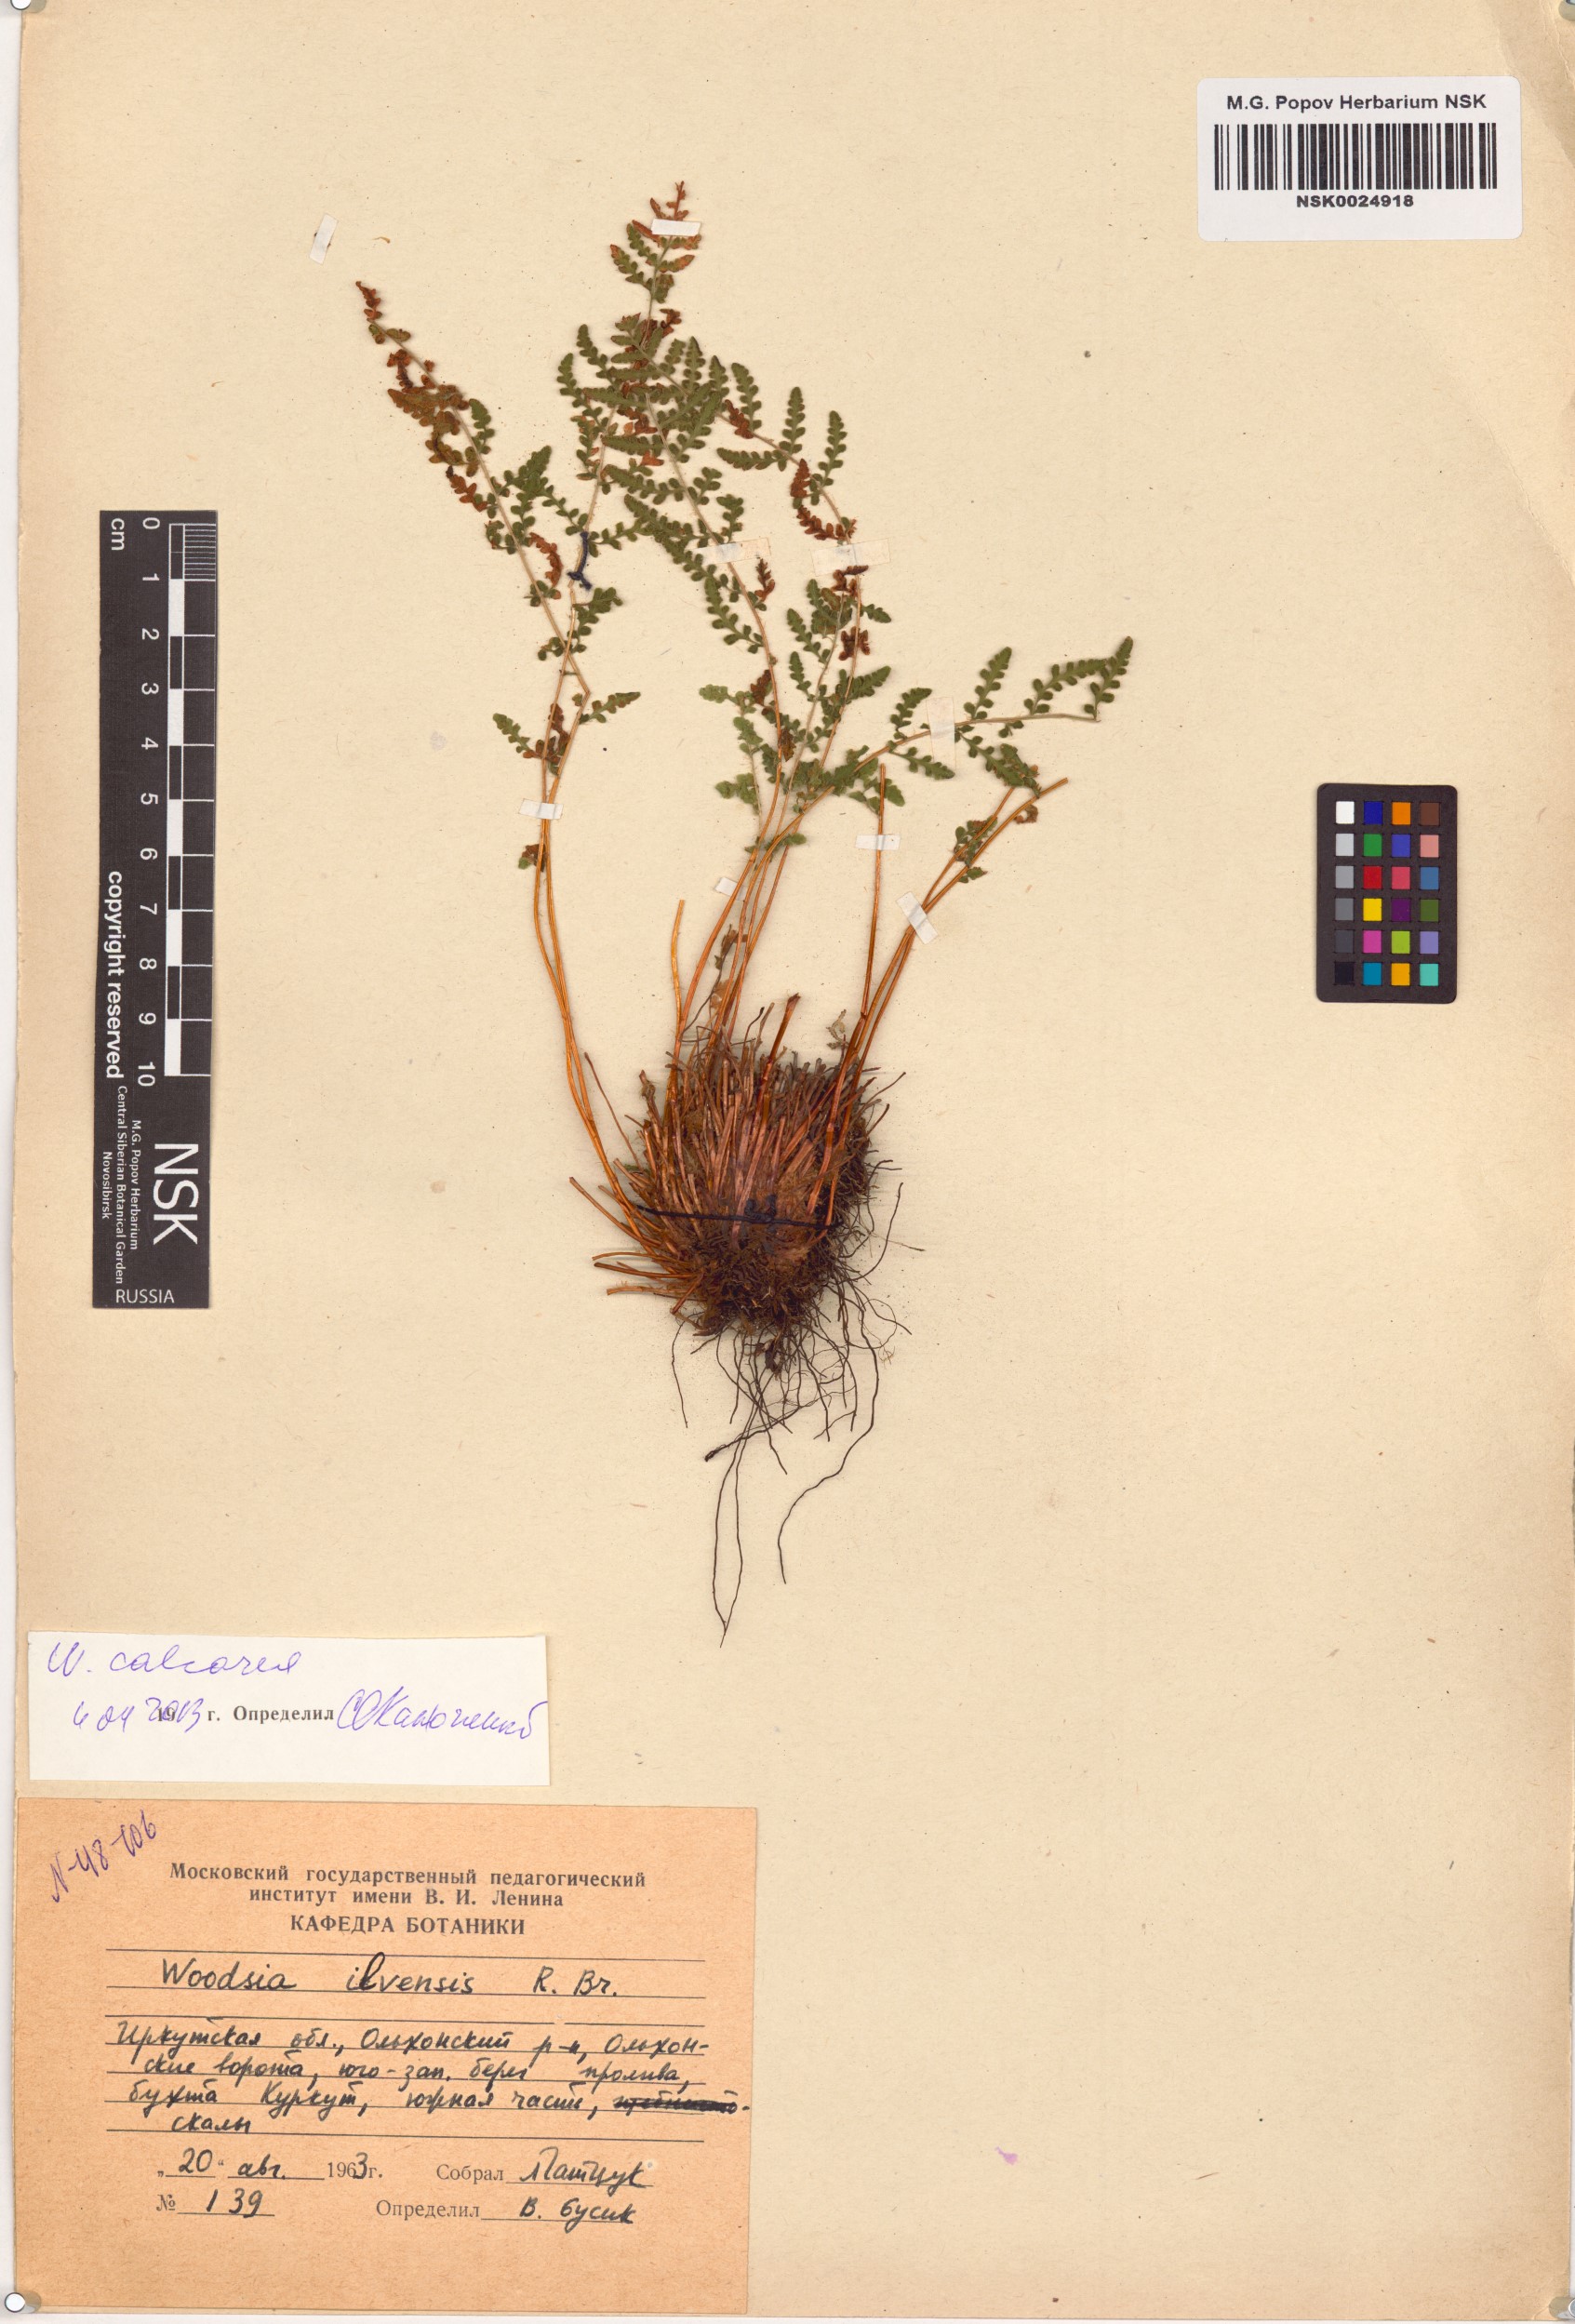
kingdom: Plantae
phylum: Tracheophyta
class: Polypodiopsida
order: Polypodiales
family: Woodsiaceae
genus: Woodsia
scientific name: Woodsia calcarea
